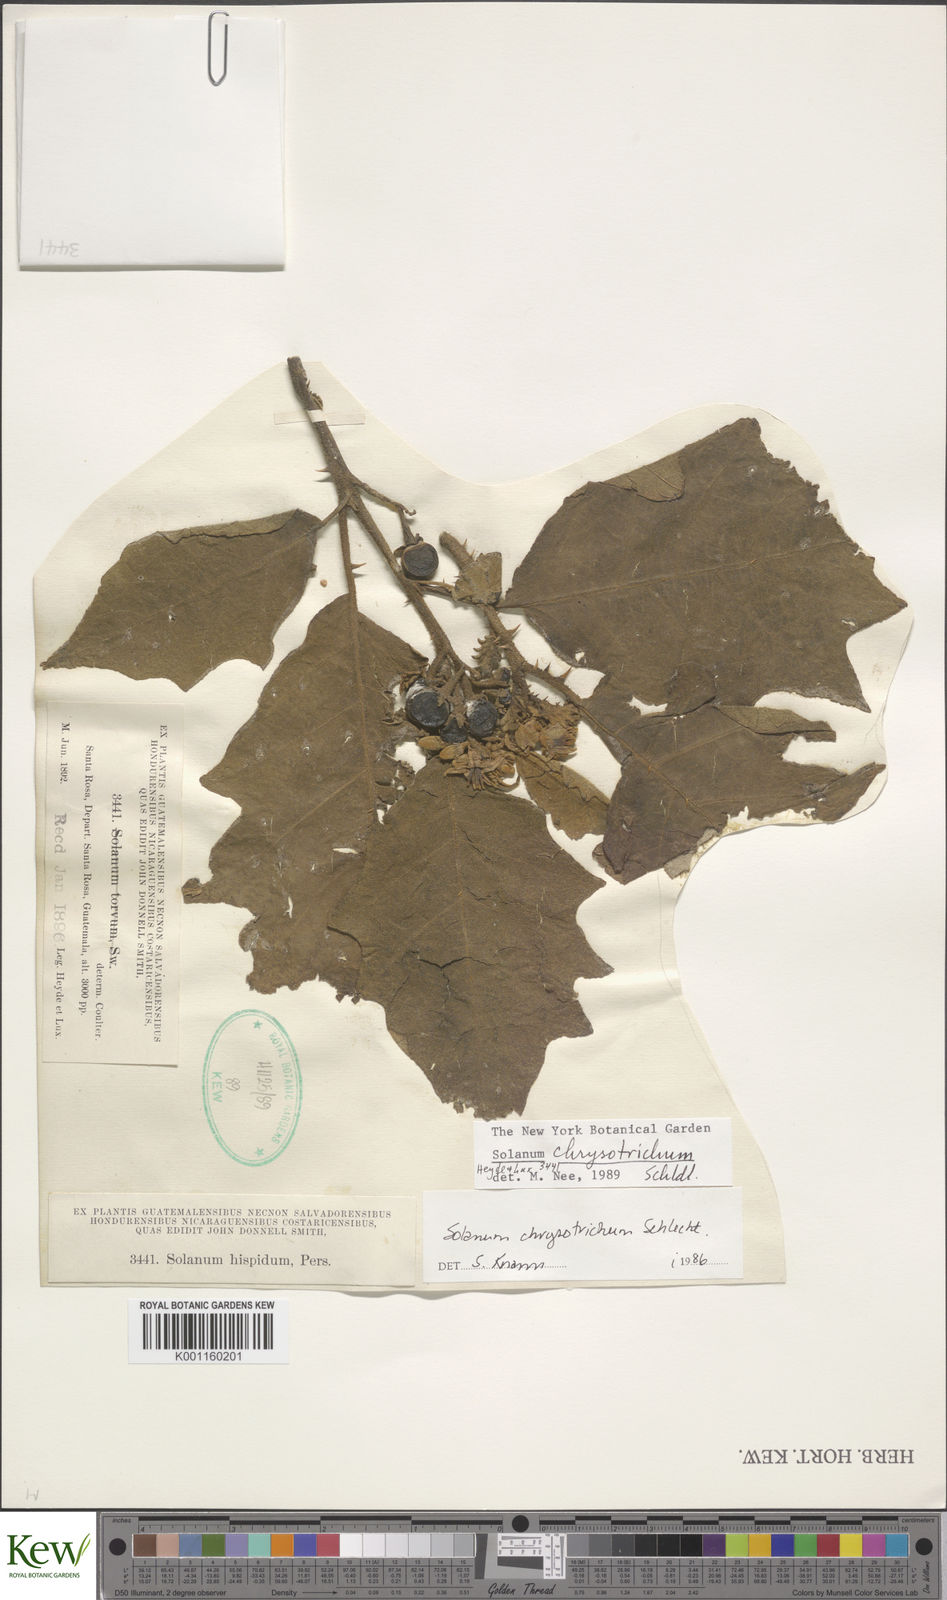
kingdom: Plantae
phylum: Tracheophyta
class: Magnoliopsida
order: Solanales
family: Solanaceae
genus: Solanum
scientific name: Solanum chrysotrichum
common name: Nightshade
